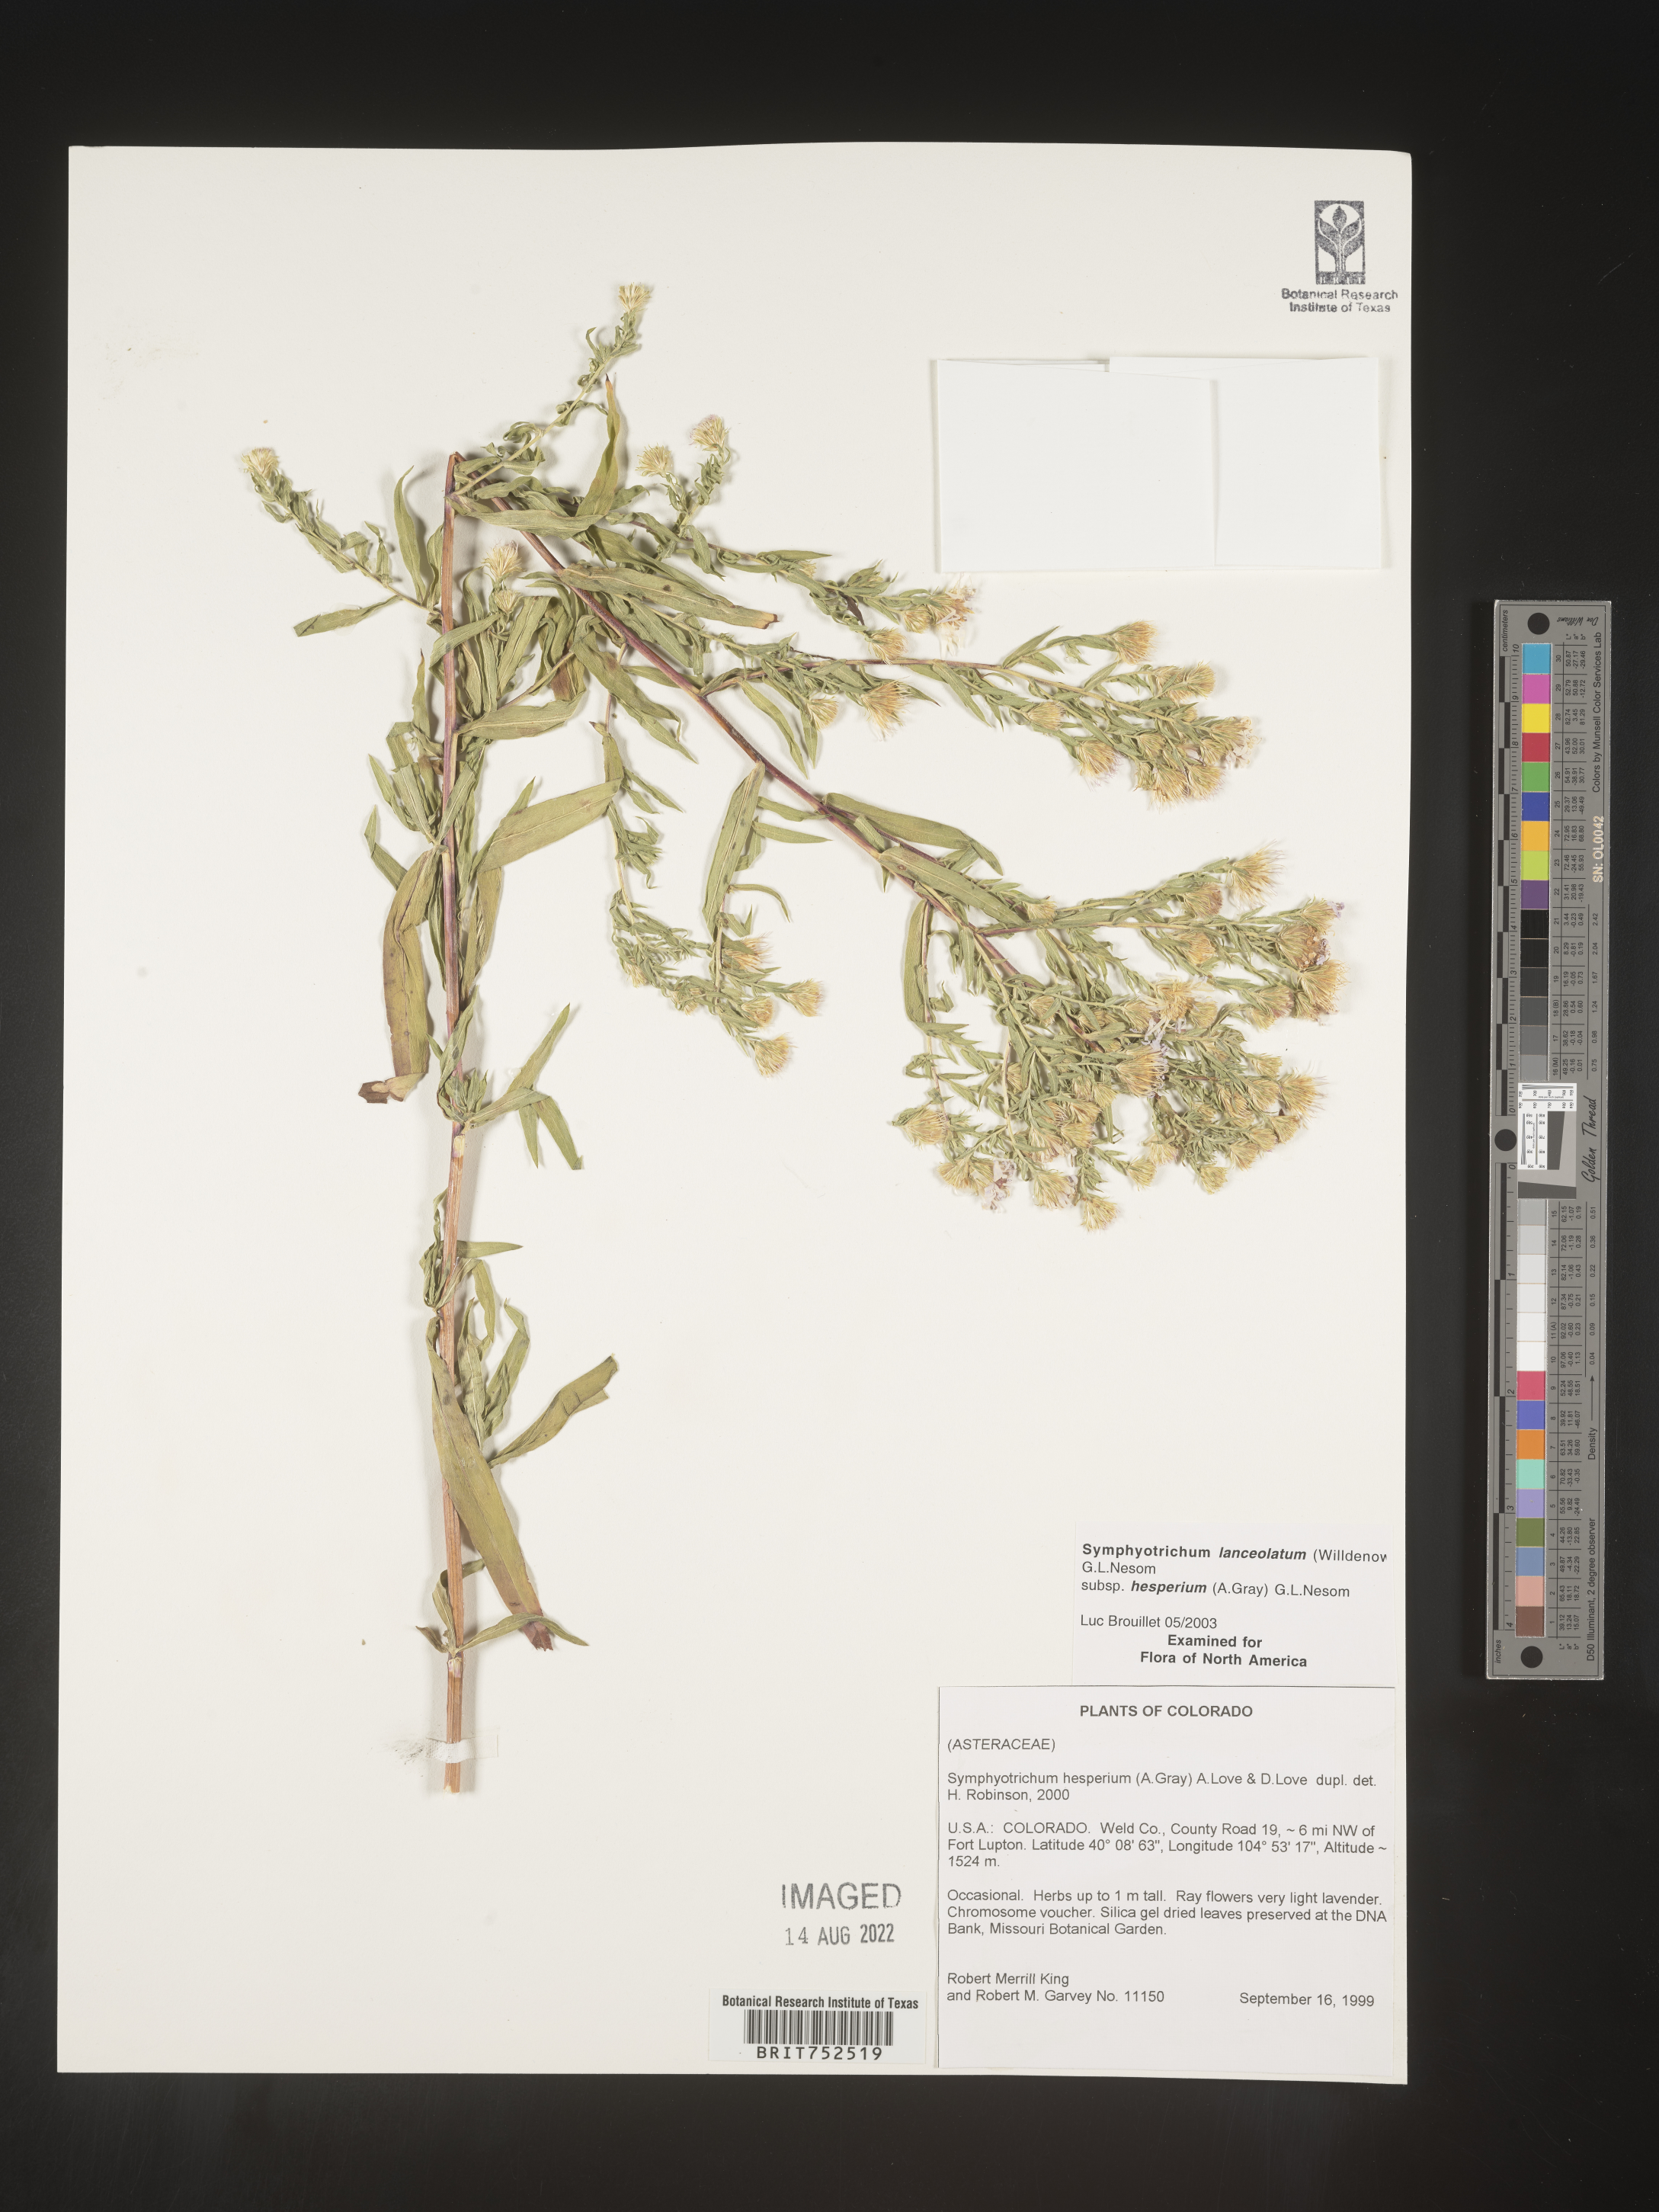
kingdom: Plantae
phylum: Tracheophyta
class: Magnoliopsida
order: Asterales
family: Asteraceae
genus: Symphyotrichum
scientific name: Symphyotrichum lanceolatum
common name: Panicled aster
